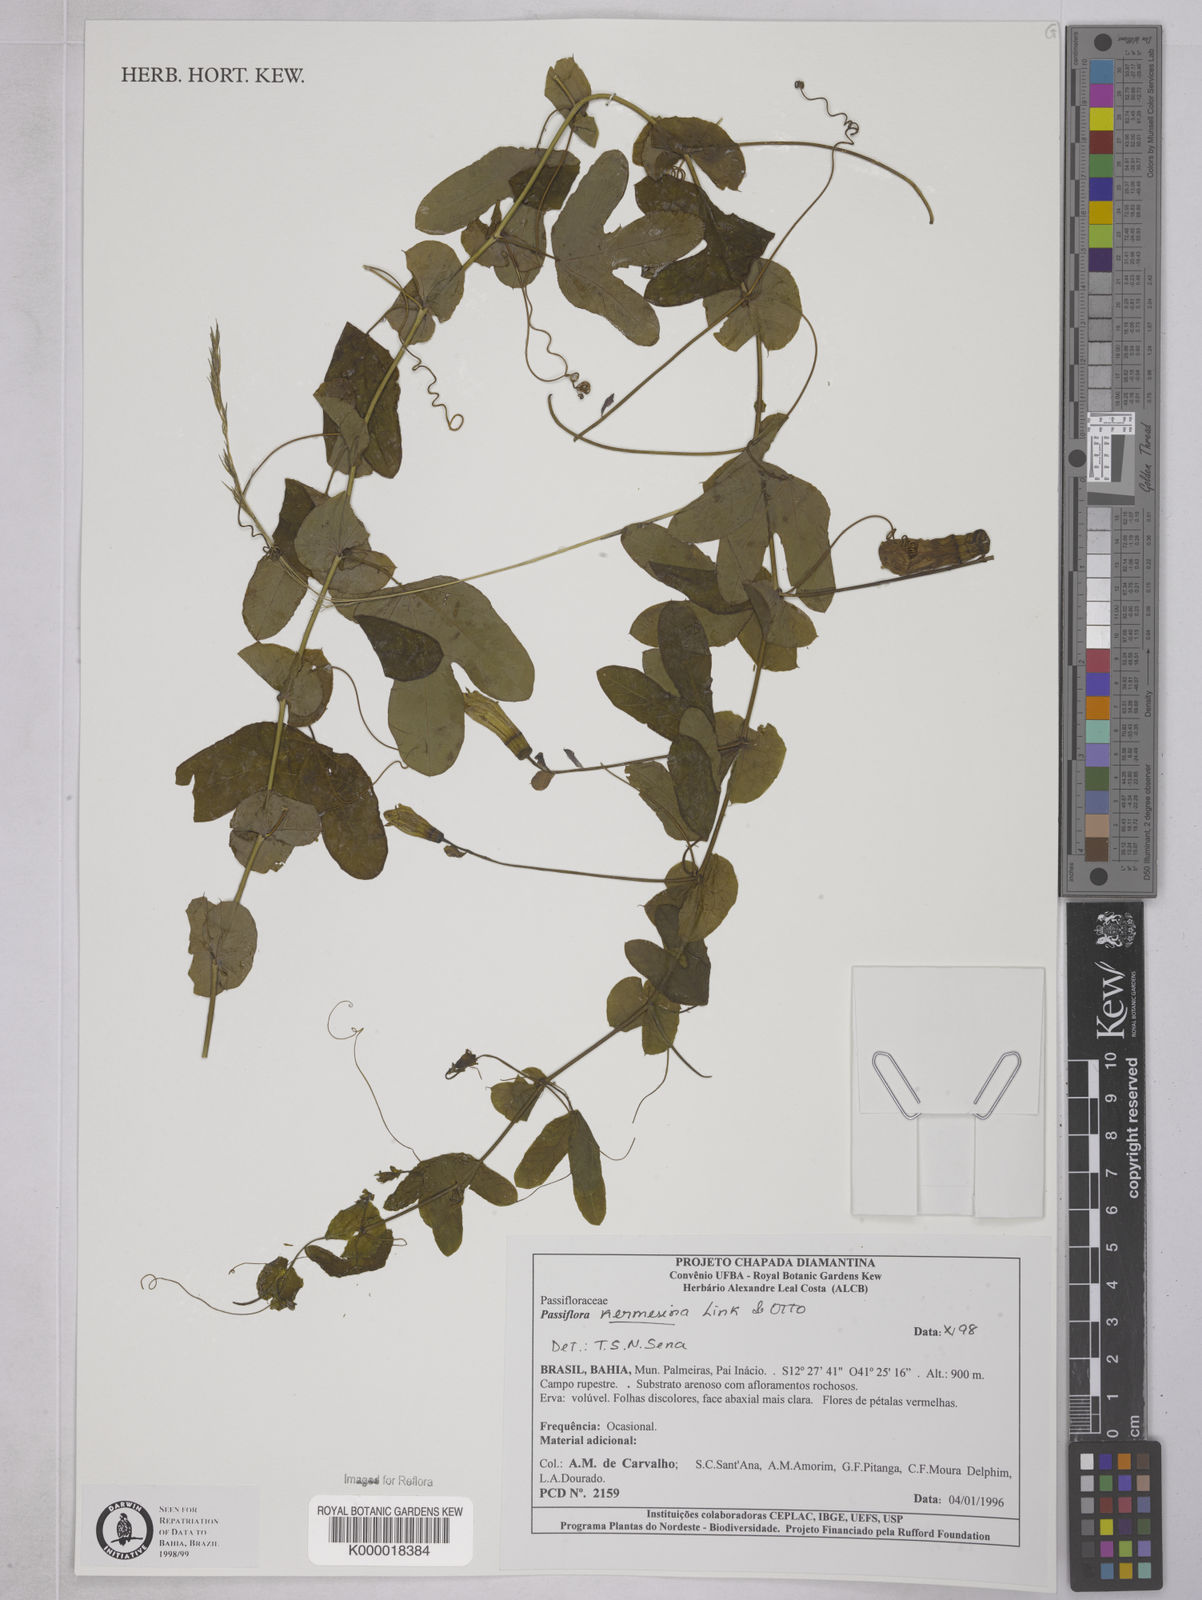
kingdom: Plantae
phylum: Tracheophyta
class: Magnoliopsida
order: Malpighiales
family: Passifloraceae
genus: Passiflora
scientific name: Passiflora kermesina
